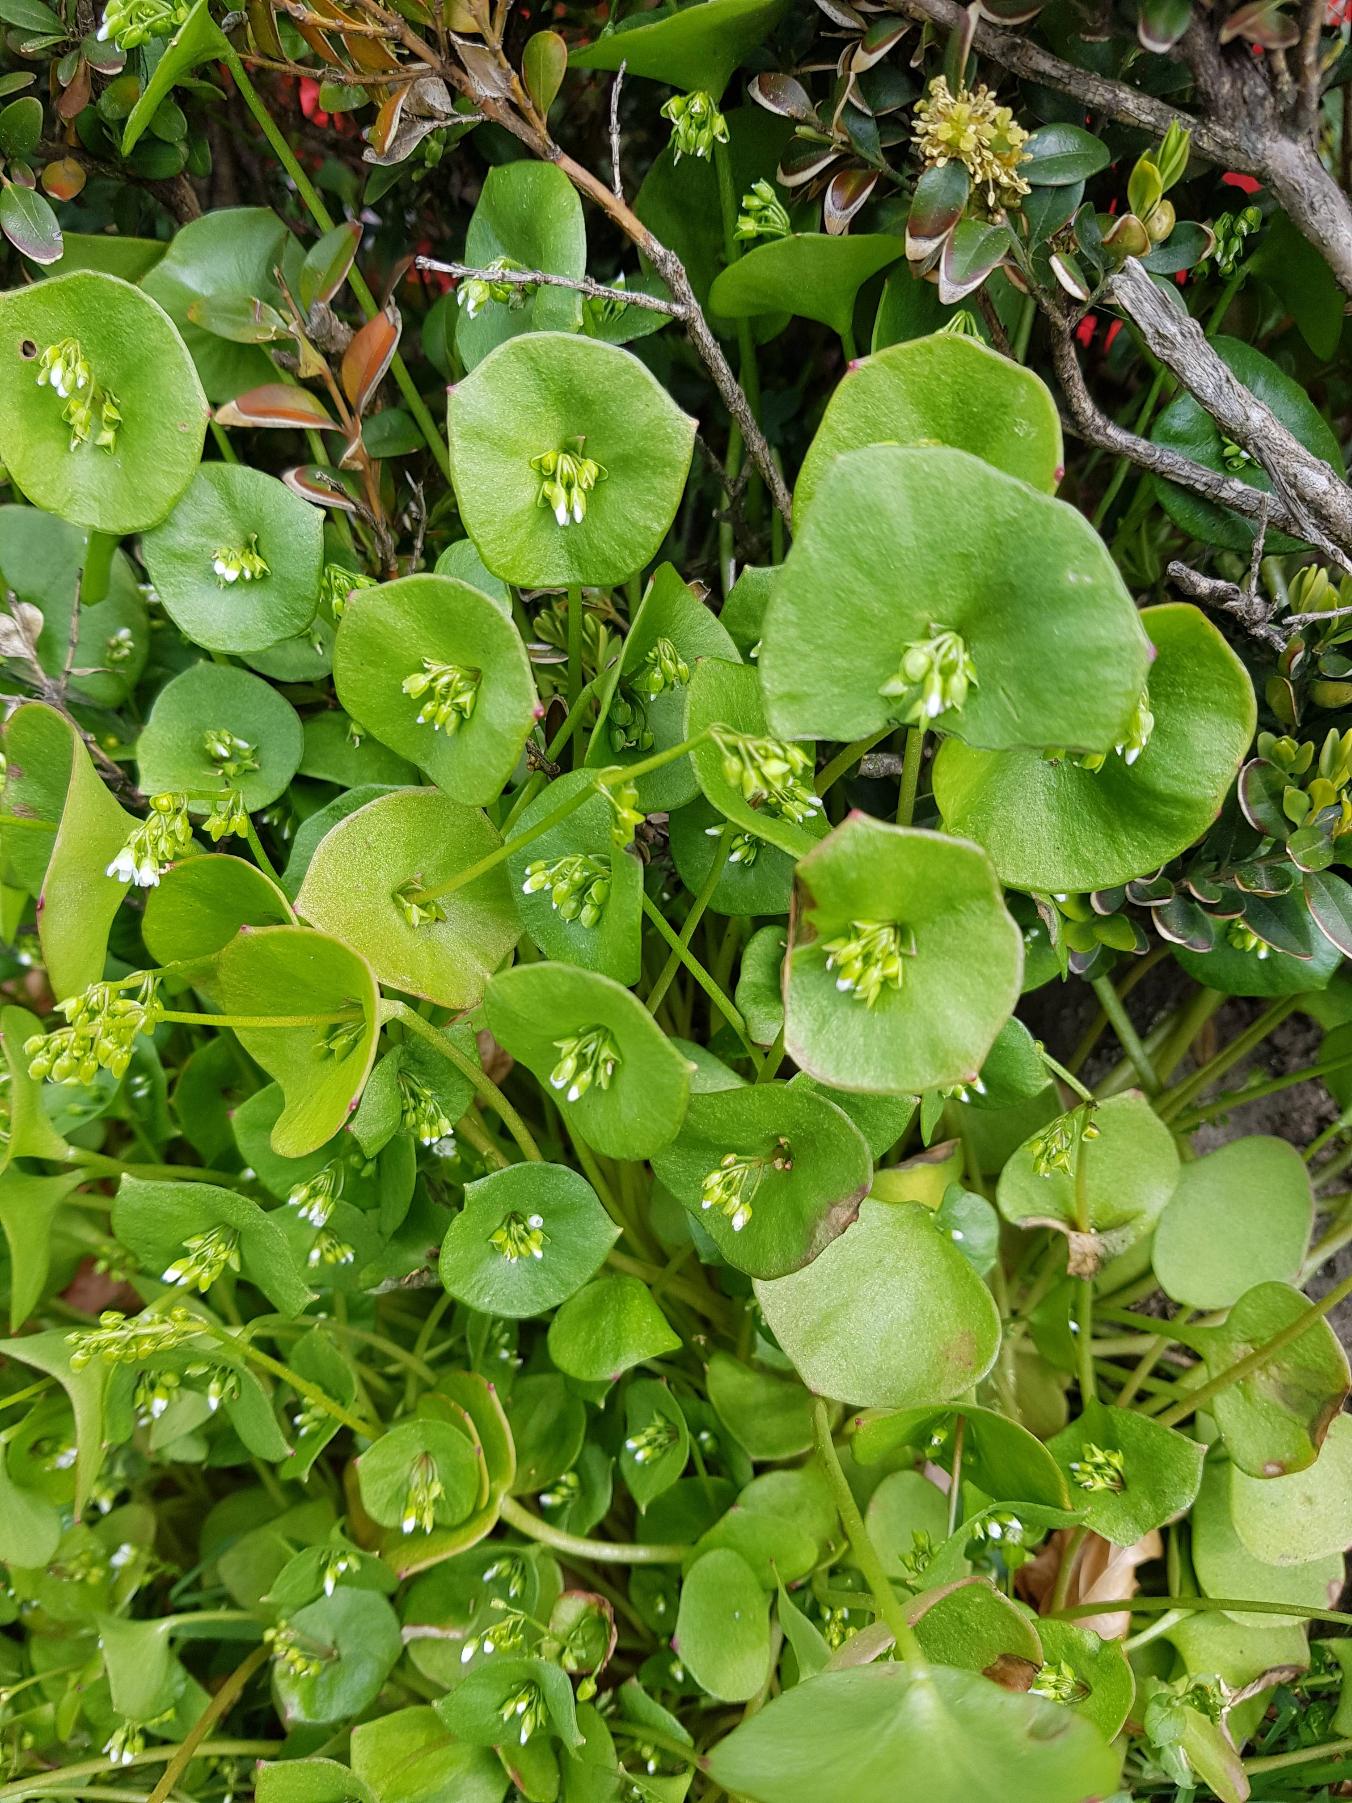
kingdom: Plantae
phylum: Tracheophyta
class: Magnoliopsida
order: Caryophyllales
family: Montiaceae
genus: Claytonia
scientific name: Claytonia perfoliata
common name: Spiselig vinterportulak
